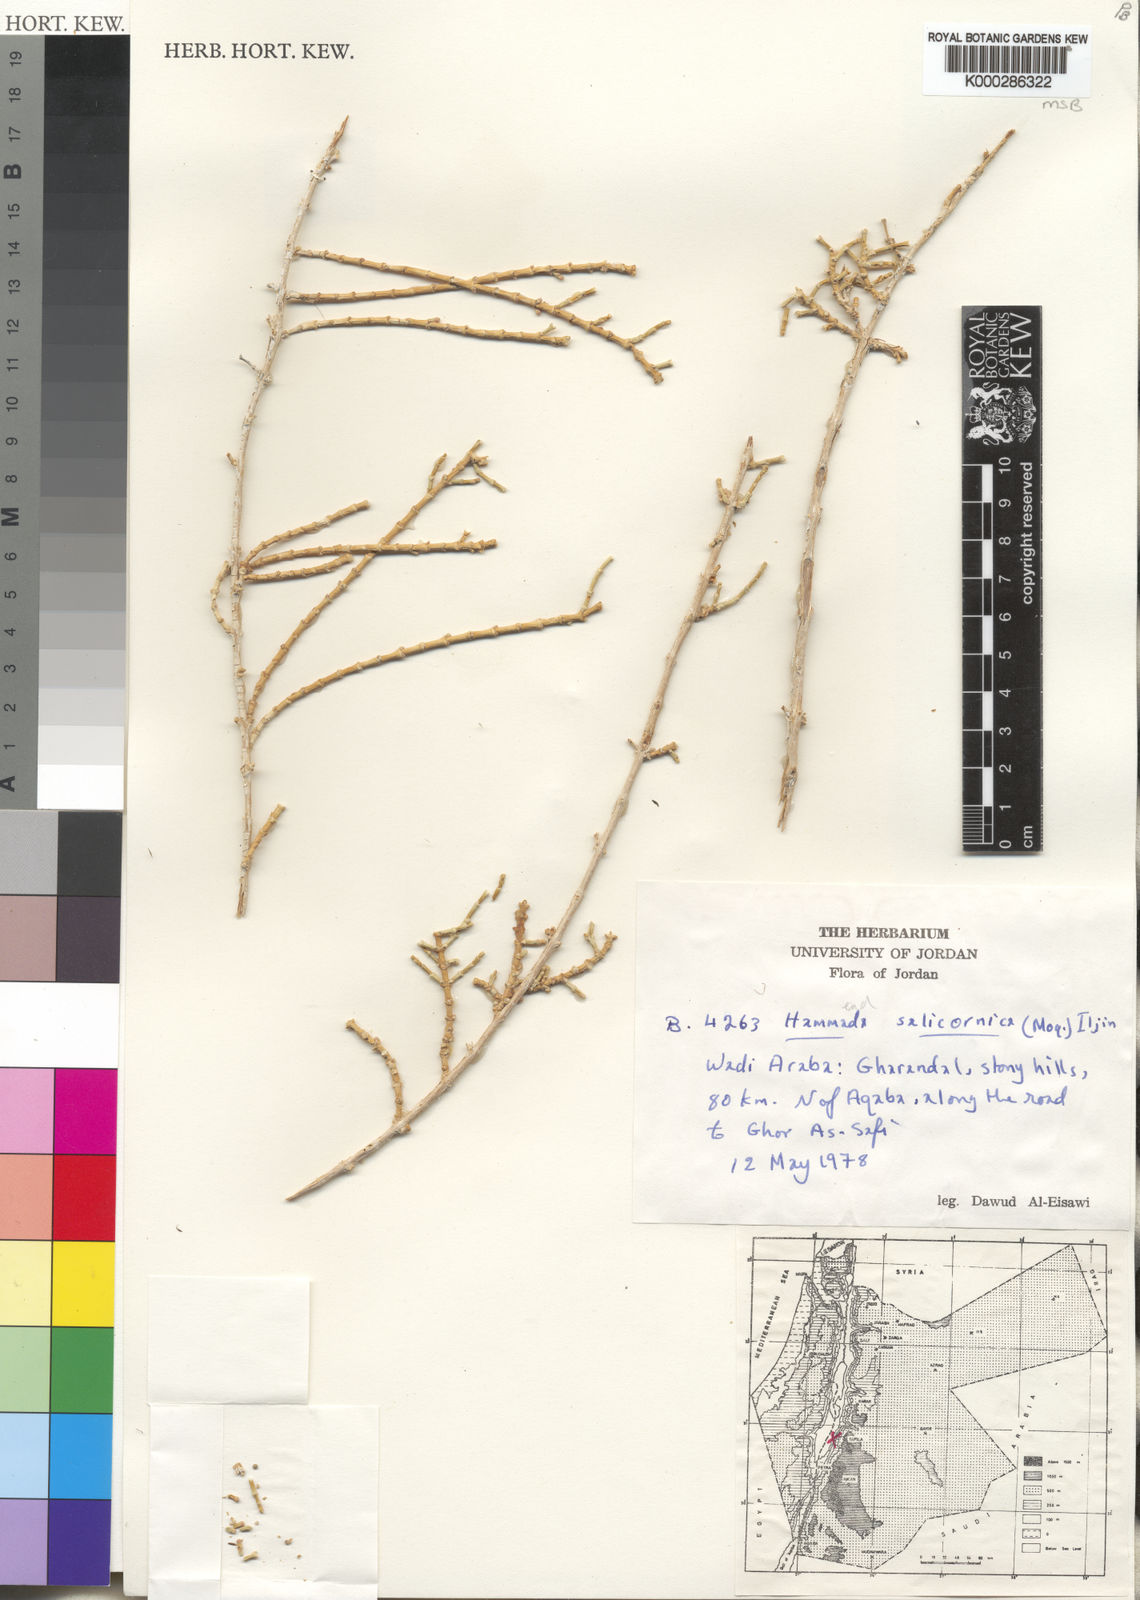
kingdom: Plantae
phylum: Tracheophyta
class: Magnoliopsida
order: Caryophyllales
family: Amaranthaceae
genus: Haloxylon
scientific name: Haloxylon salicornicum
